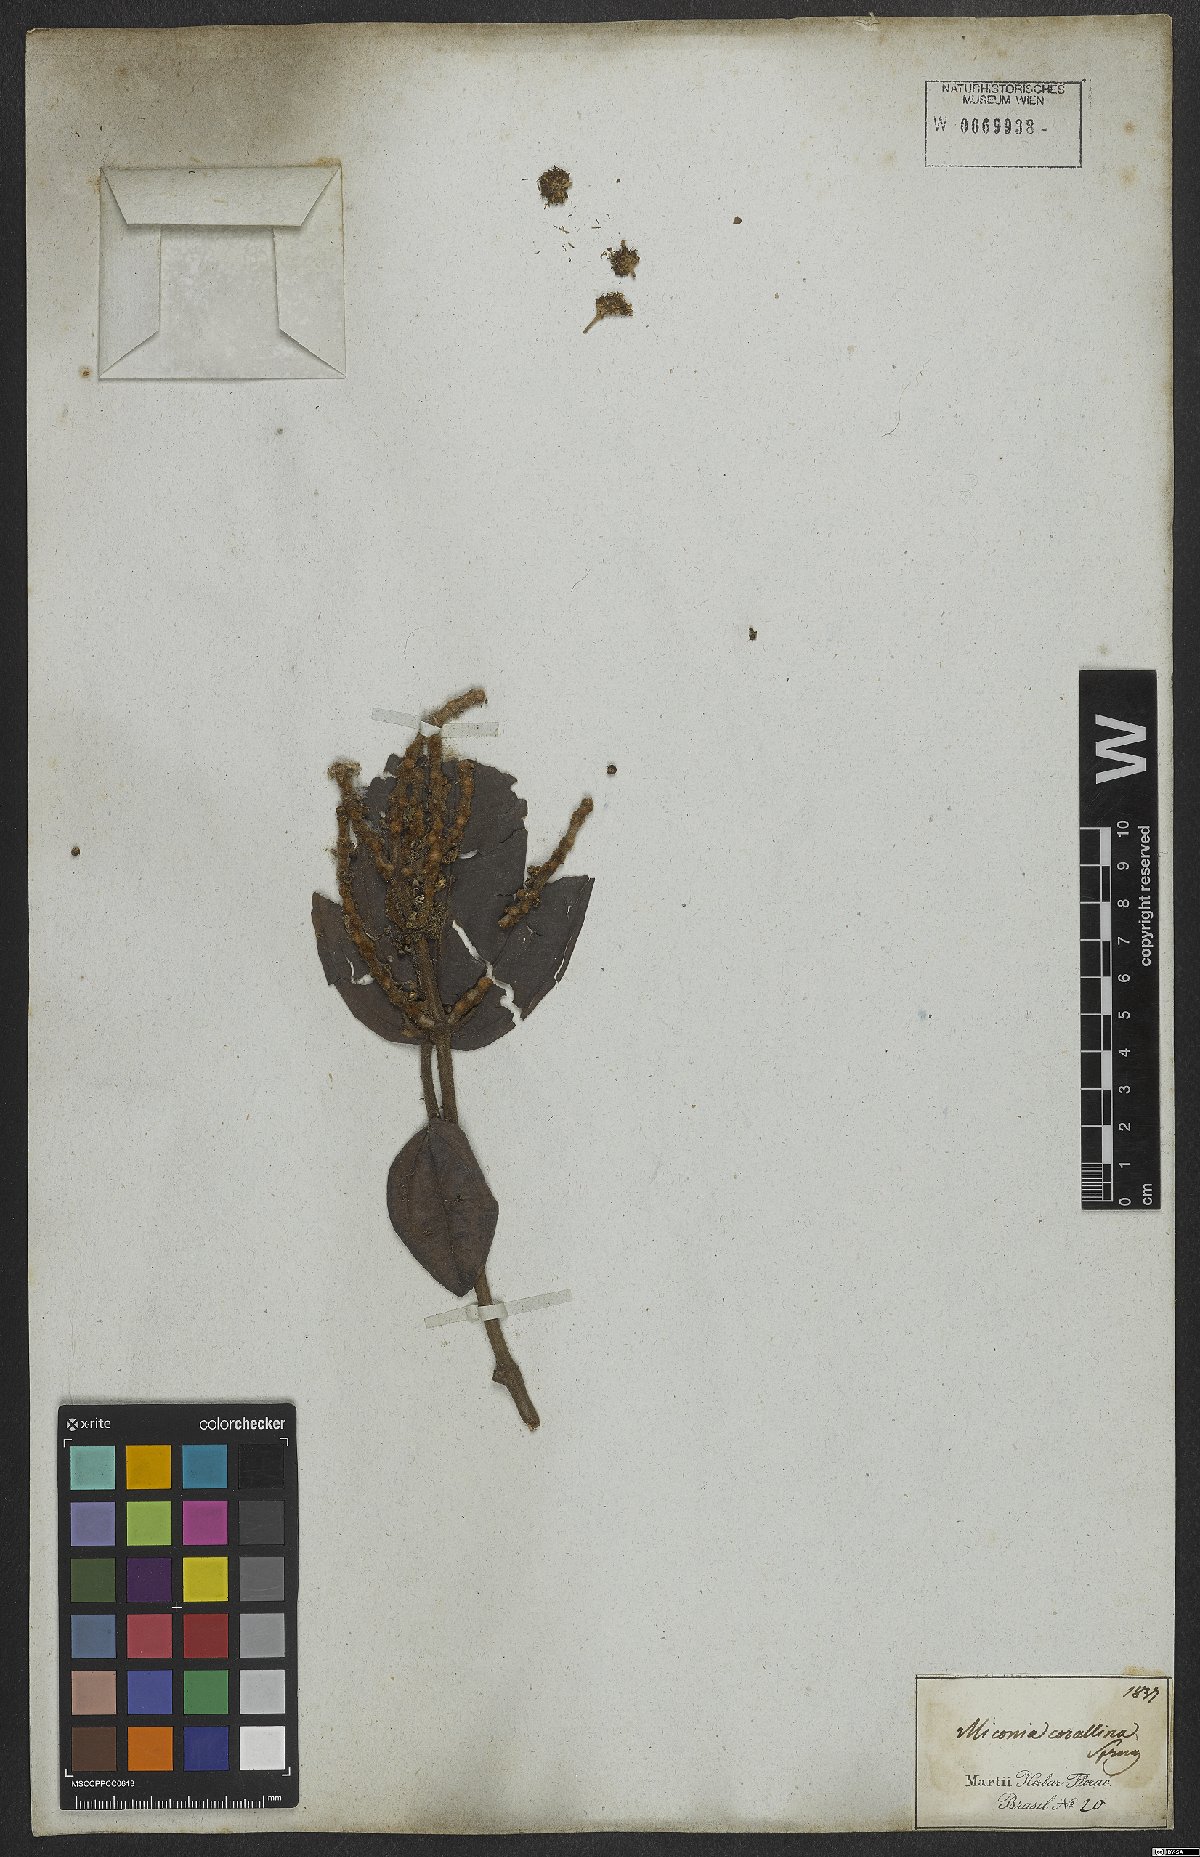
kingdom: Plantae
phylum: Tracheophyta
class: Magnoliopsida
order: Myrtales
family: Melastomataceae
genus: Miconia
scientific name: Miconia corallina
